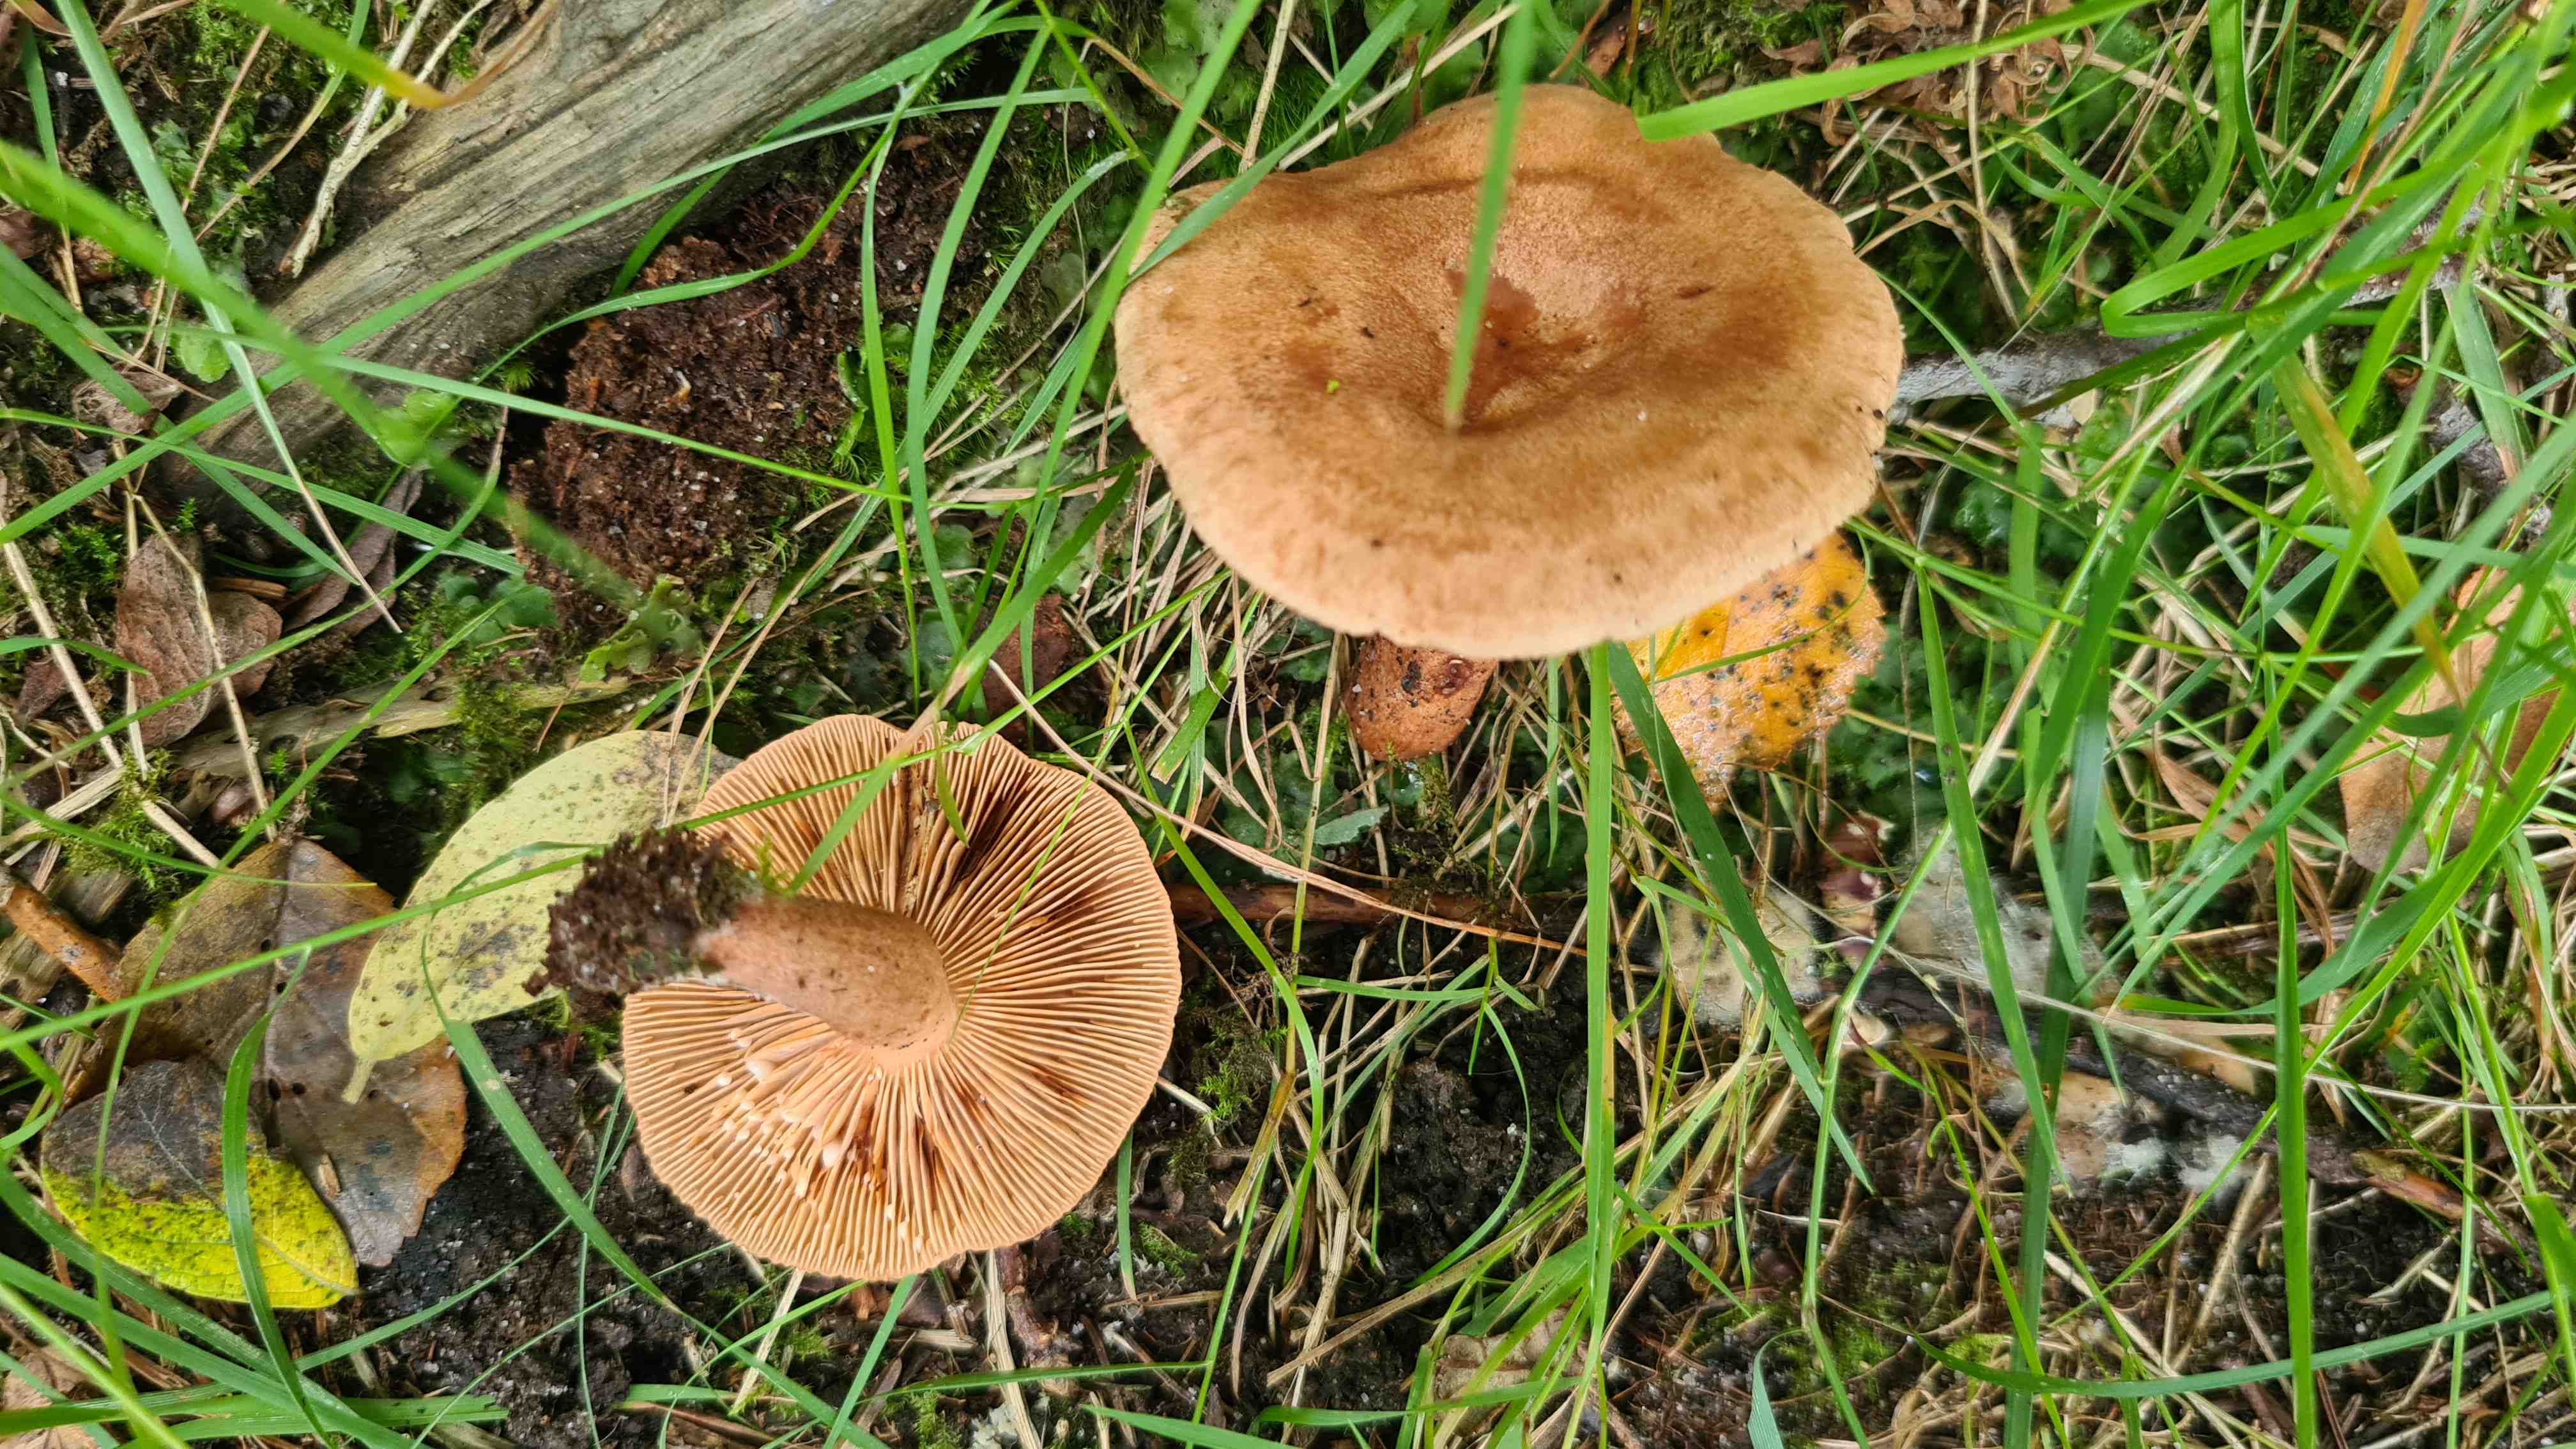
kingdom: Fungi
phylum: Basidiomycota
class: Agaricomycetes
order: Russulales
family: Russulaceae
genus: Lactarius
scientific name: Lactarius quietus
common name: ege-mælkehat
